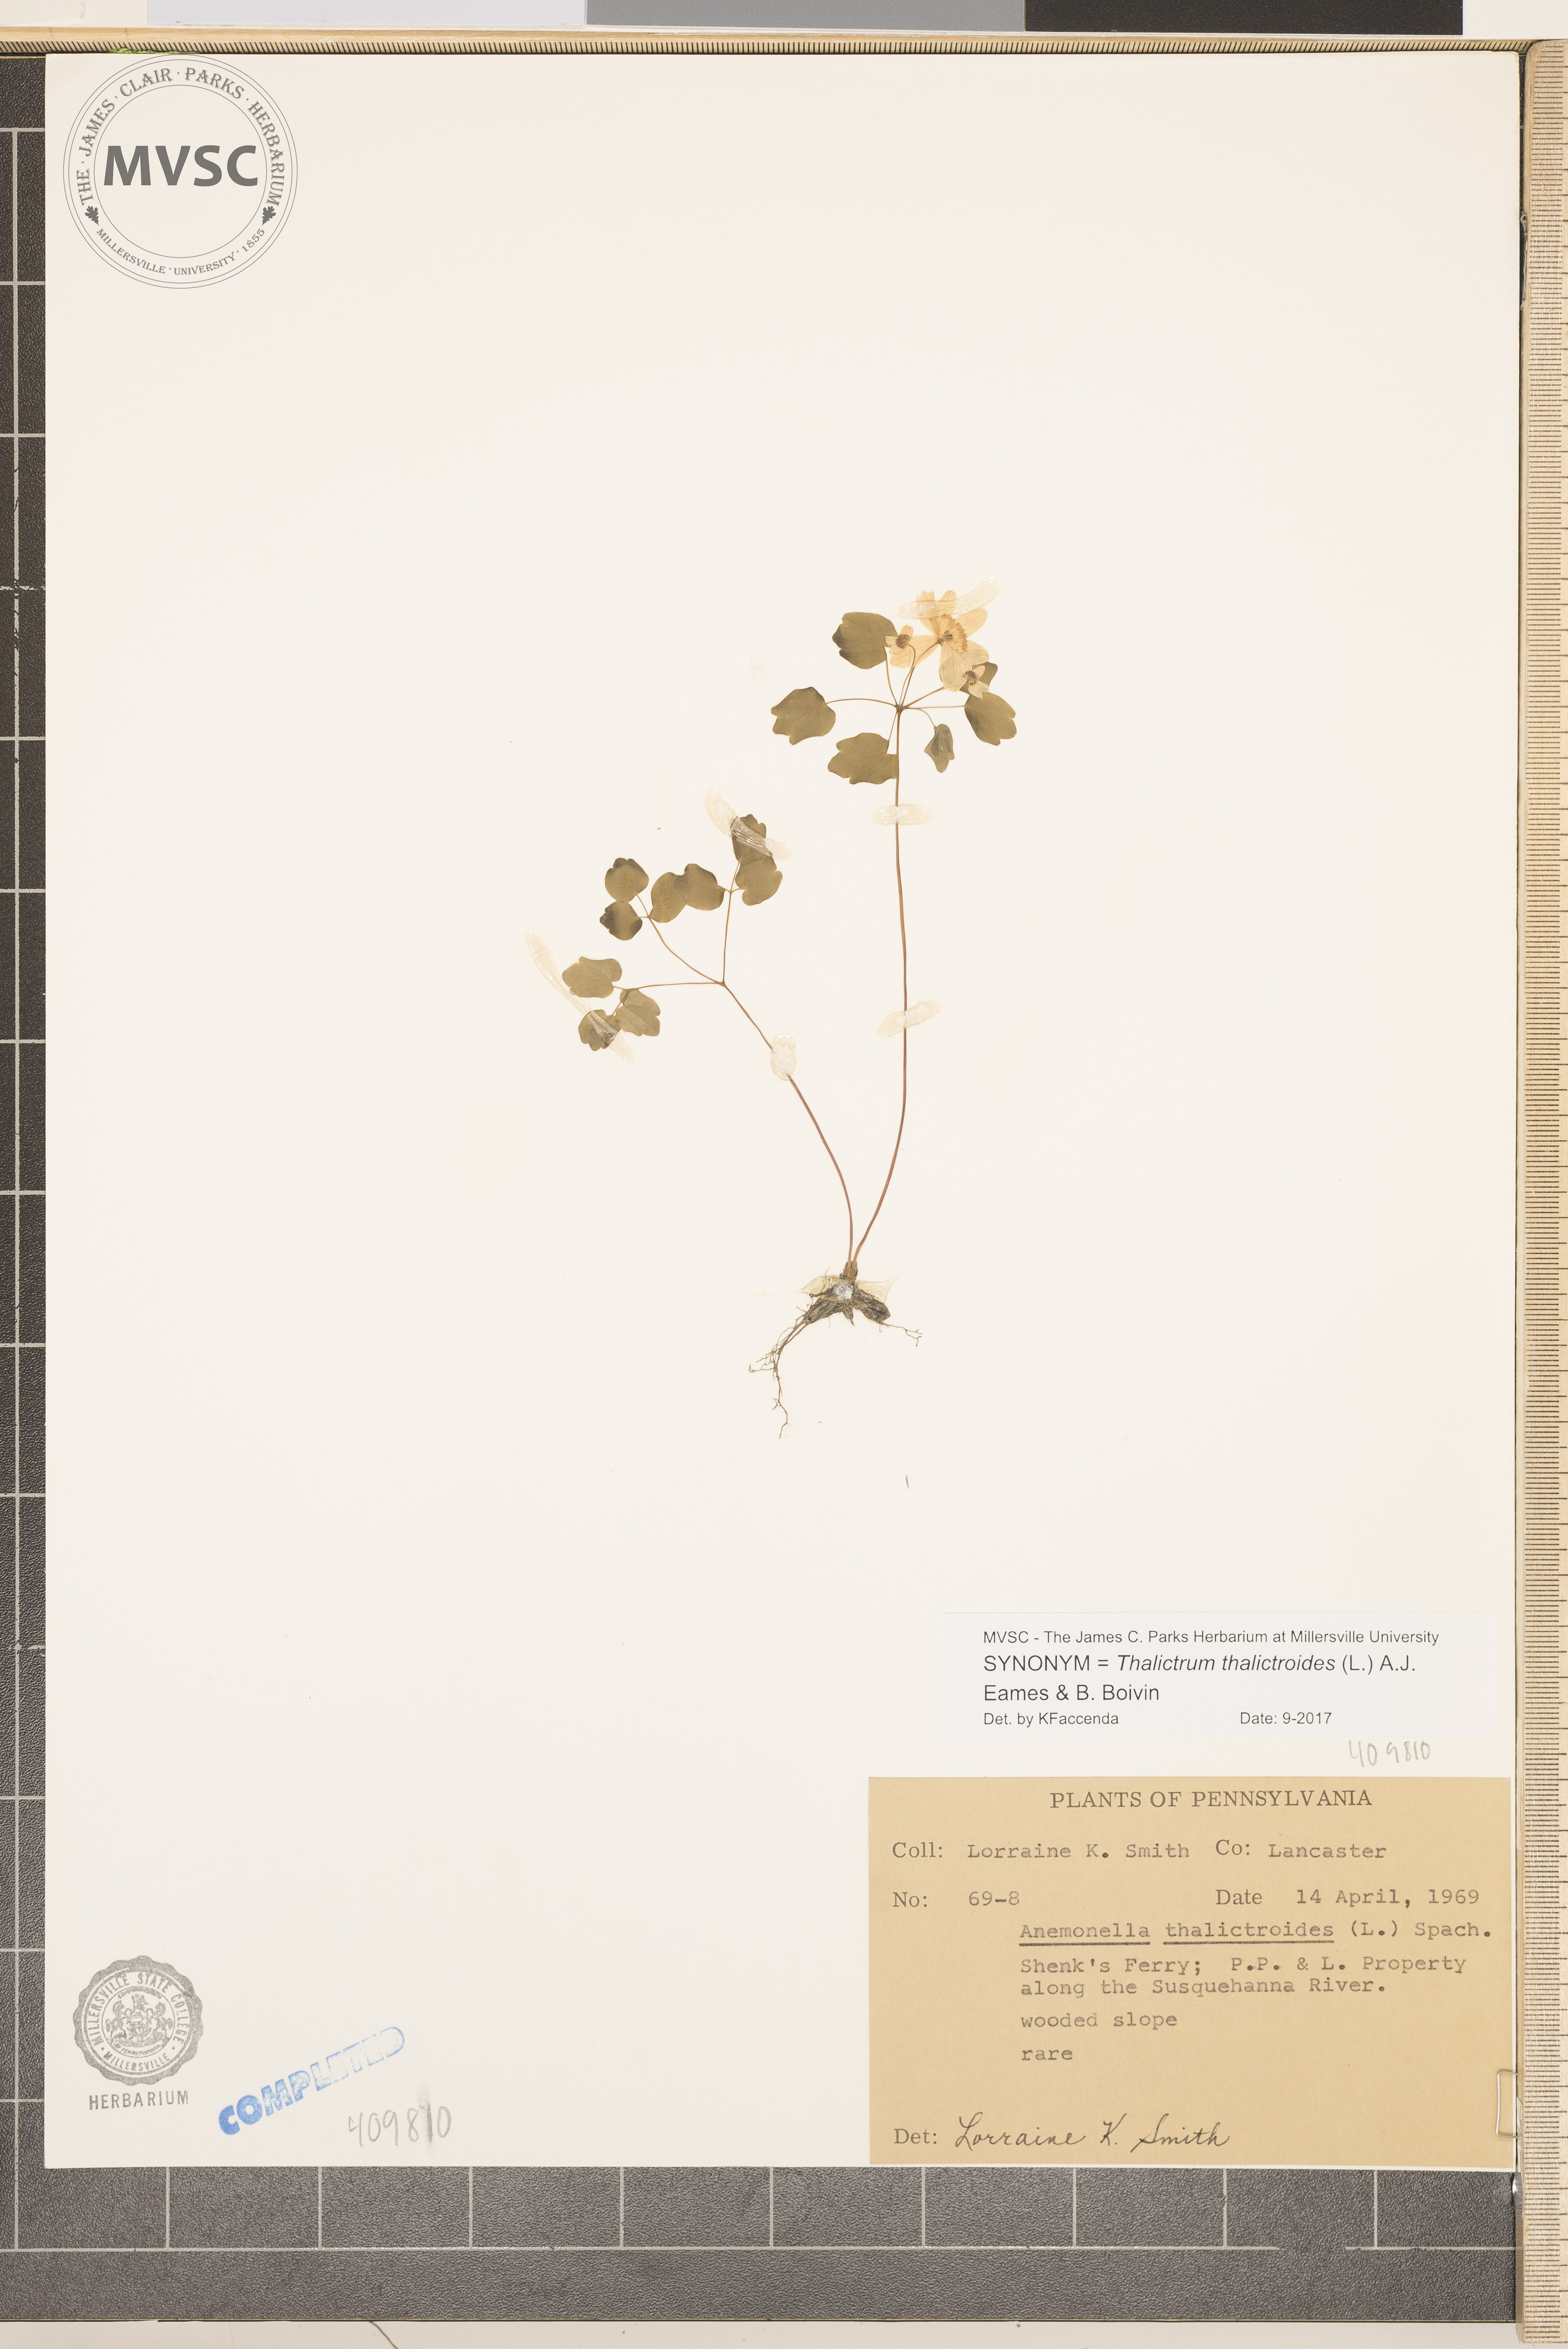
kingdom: Plantae
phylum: Tracheophyta
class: Magnoliopsida
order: Ranunculales
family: Ranunculaceae
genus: Thalictrum
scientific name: Thalictrum thalictroides
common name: Rue-anemone
